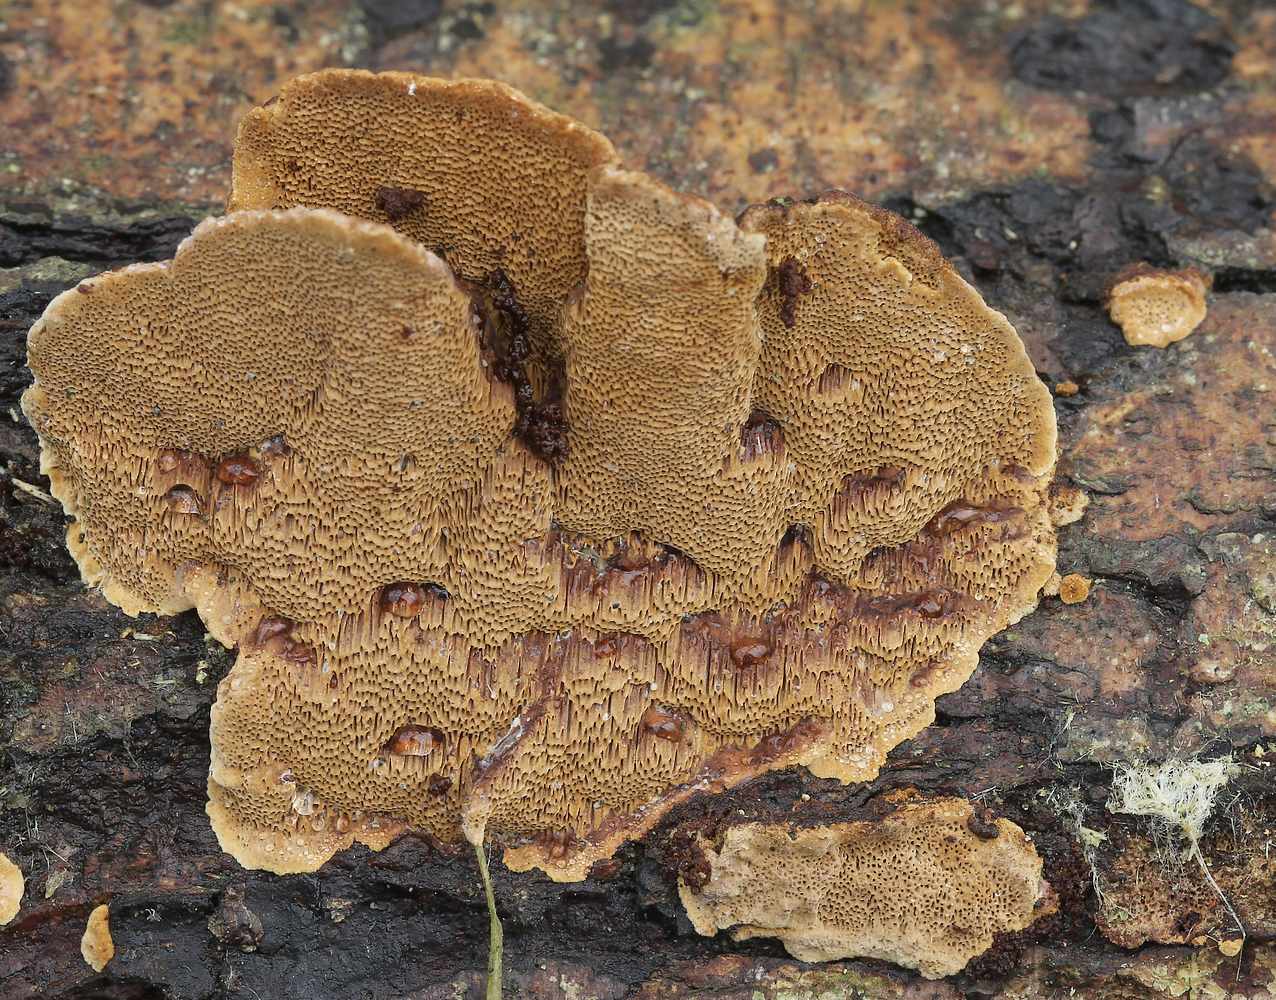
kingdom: Fungi
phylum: Basidiomycota
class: Agaricomycetes
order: Hymenochaetales
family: Hymenochaetaceae
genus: Phellinopsis
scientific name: Phellinopsis conchata
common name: pile-ildporesvamp
